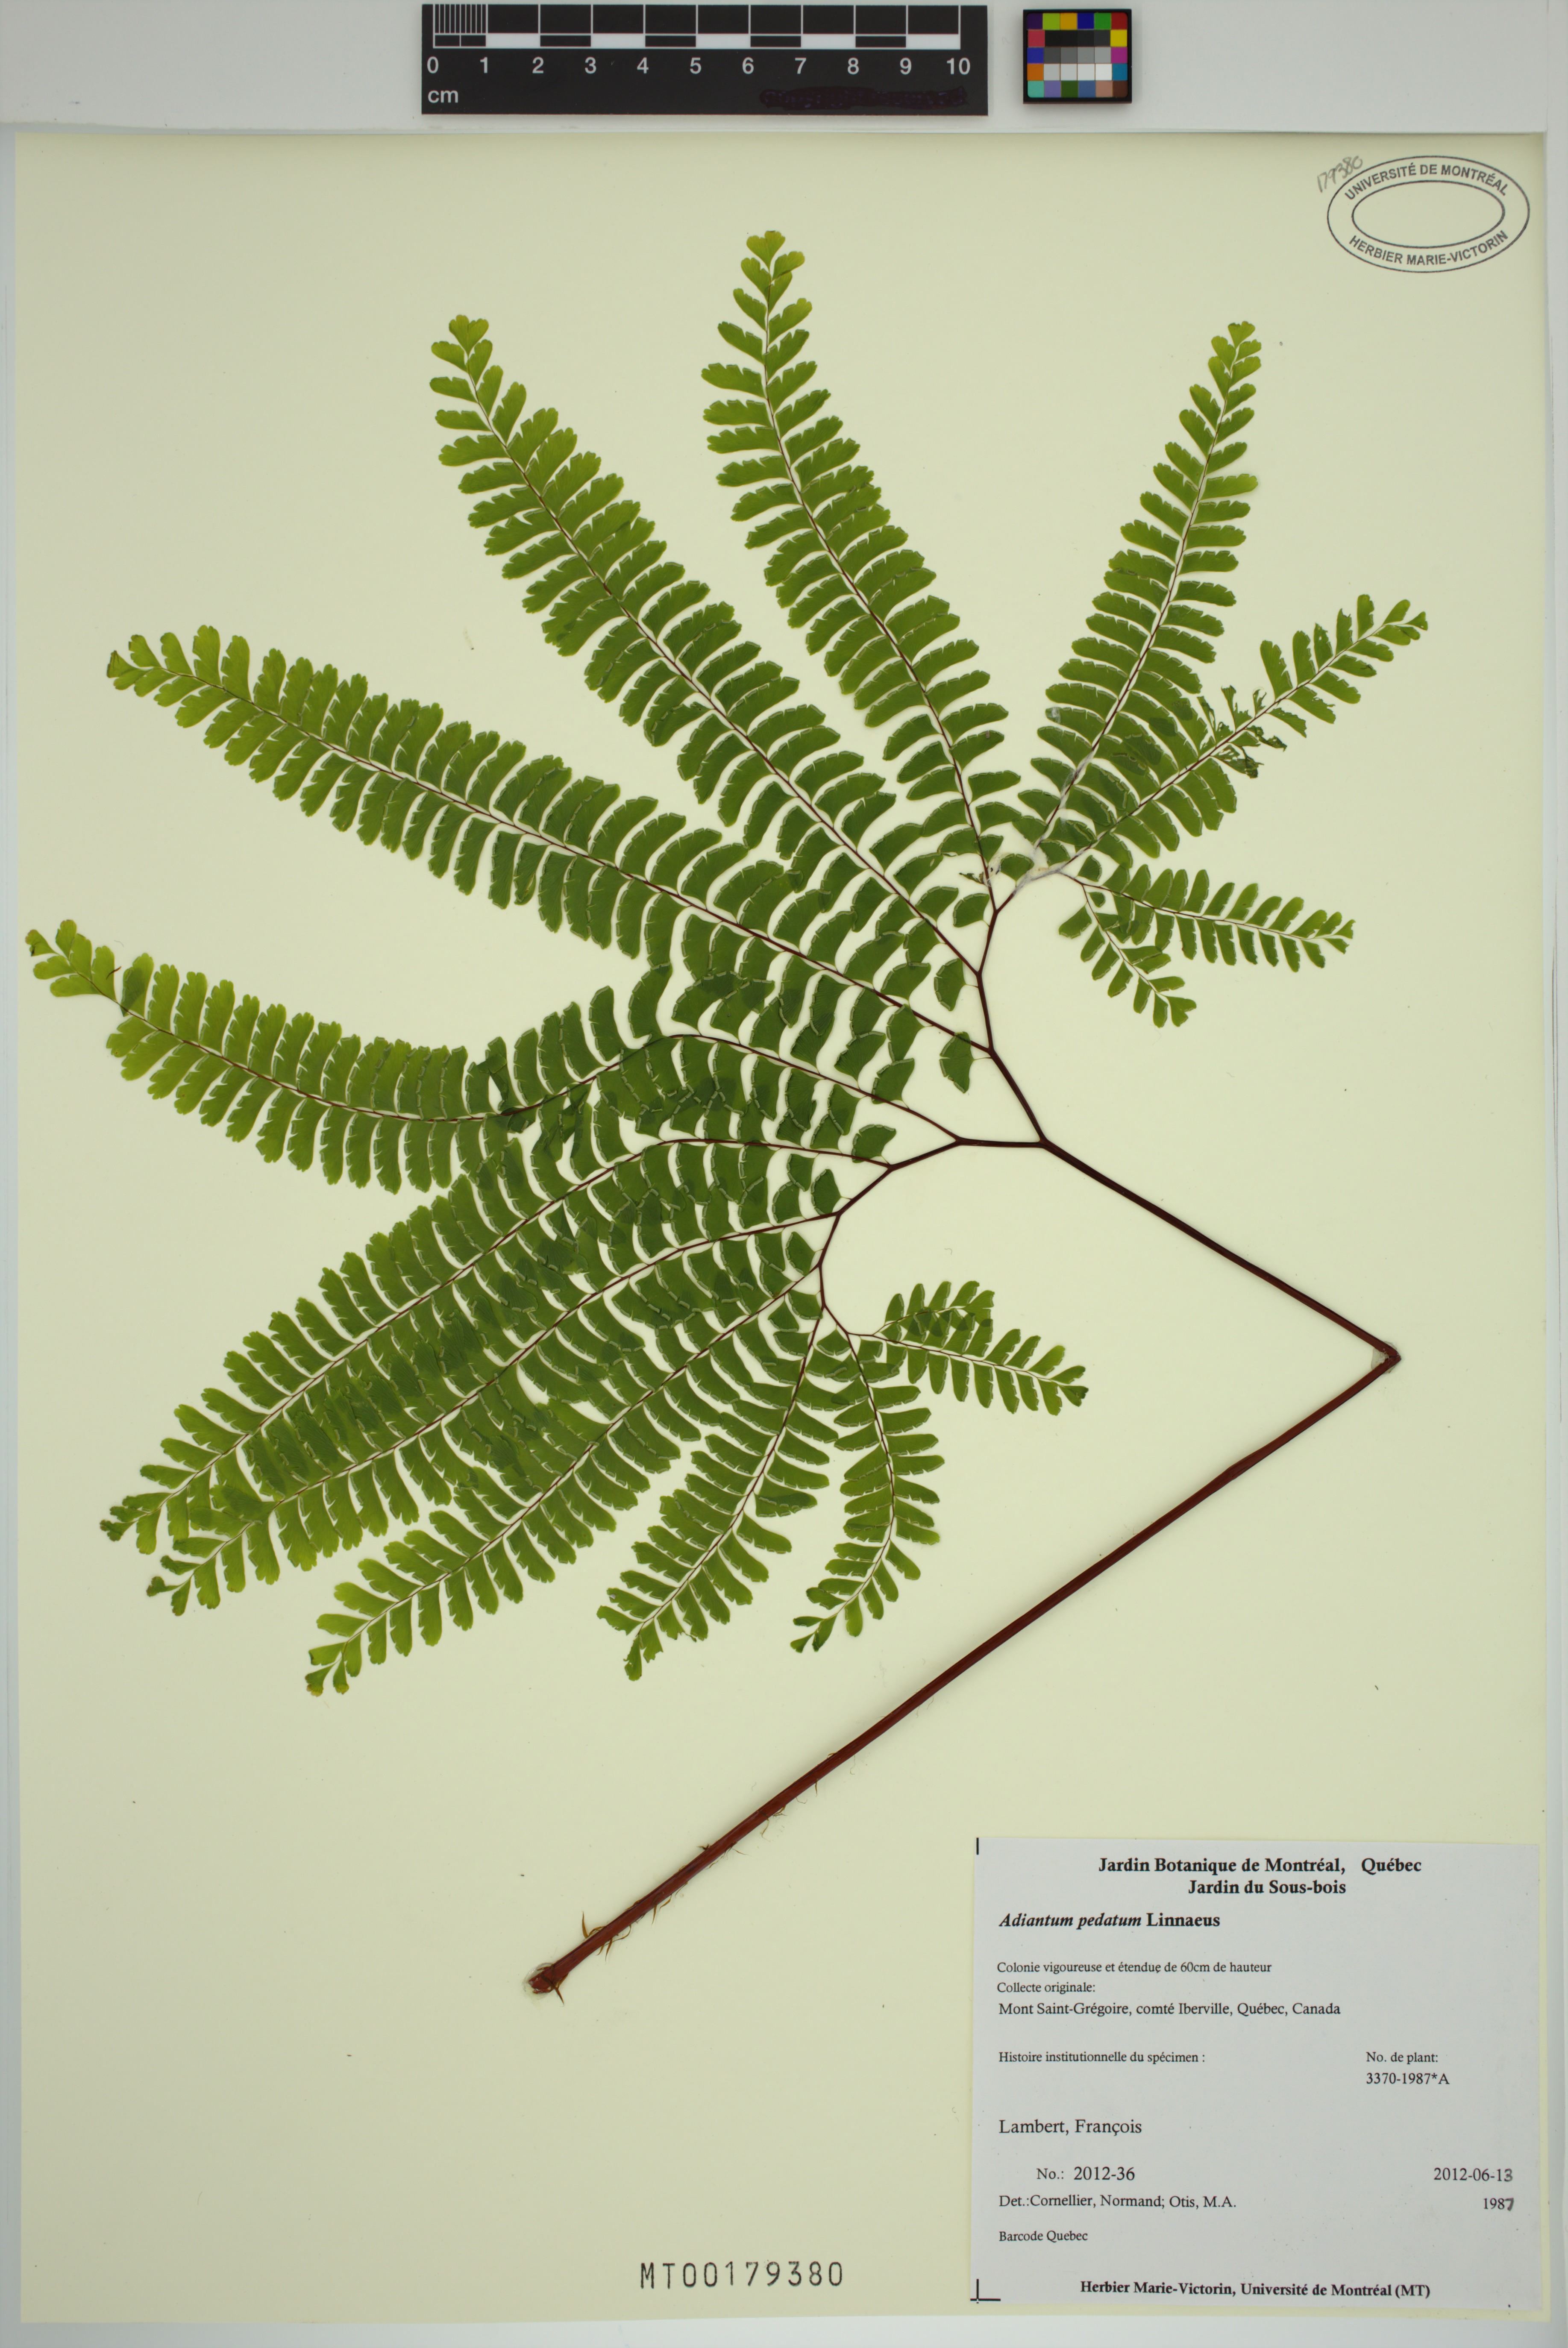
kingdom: Plantae
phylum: Tracheophyta
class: Polypodiopsida
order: Polypodiales
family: Pteridaceae
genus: Adiantum
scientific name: Adiantum pedatum
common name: Five-finger fern
